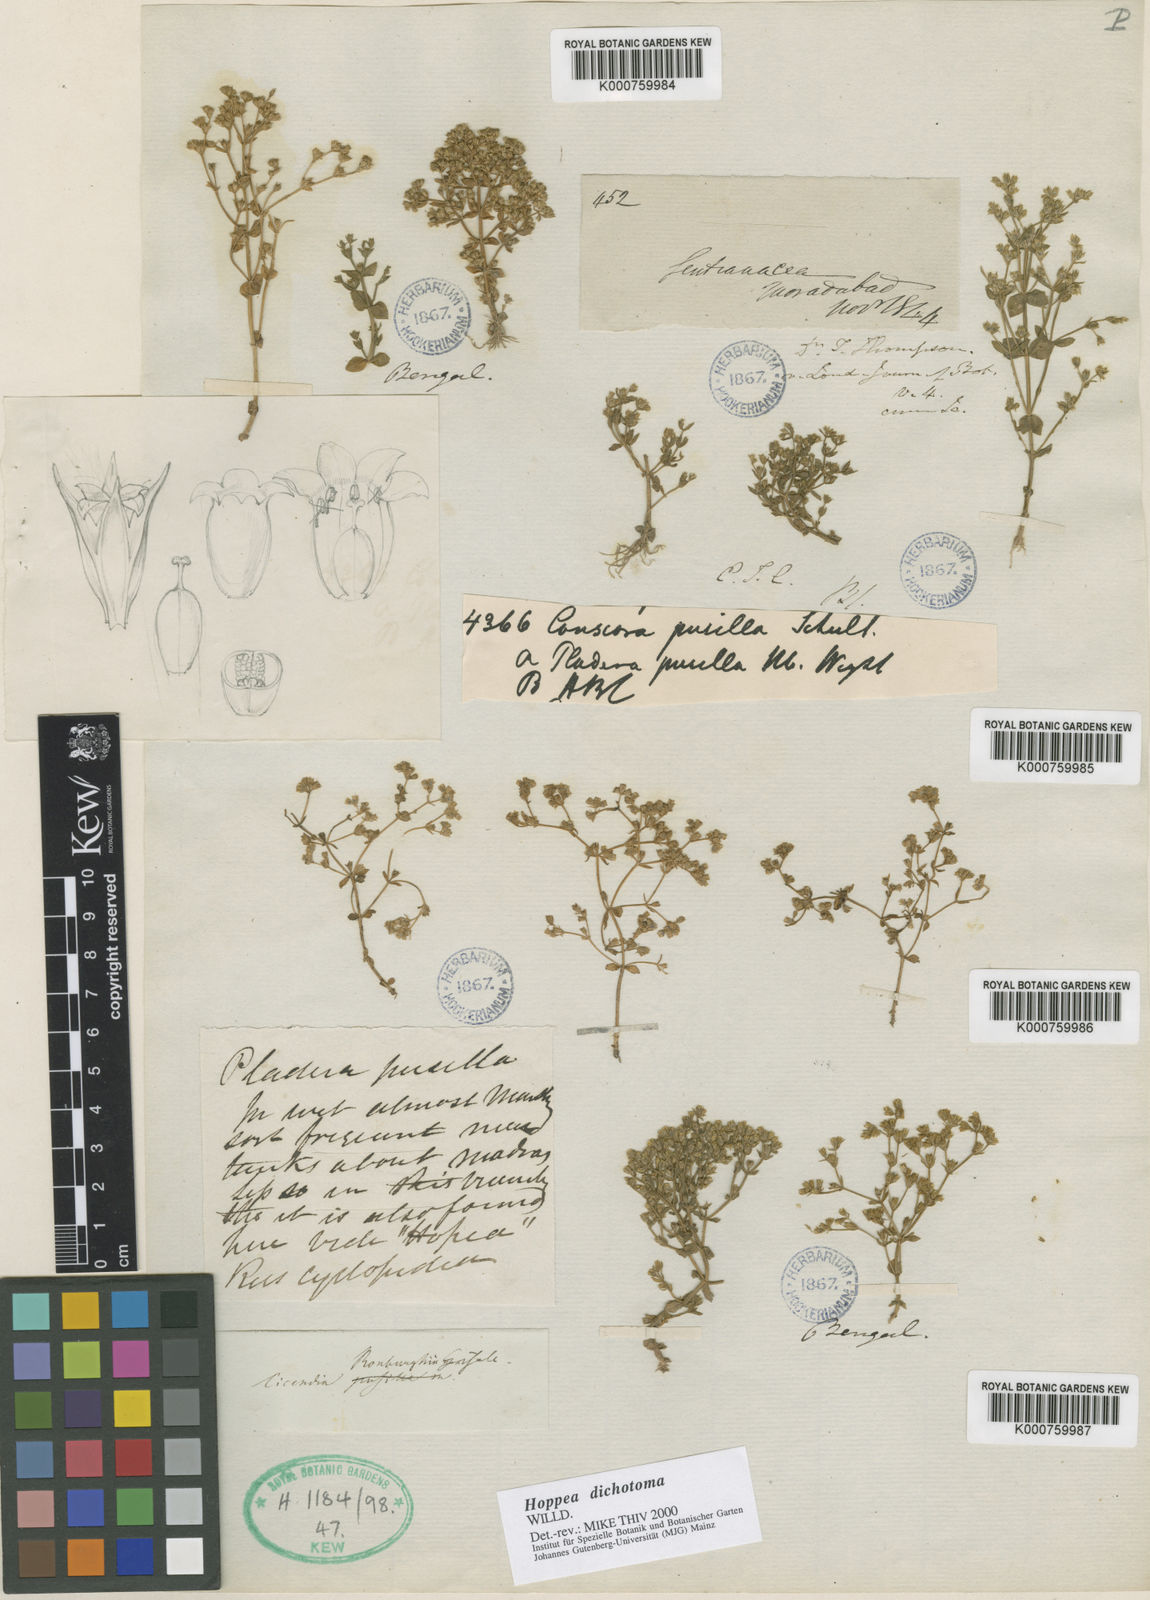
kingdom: Plantae
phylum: Tracheophyta
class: Magnoliopsida
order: Gentianales
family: Gentianaceae
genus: Hoppea
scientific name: Hoppea dichotoma
